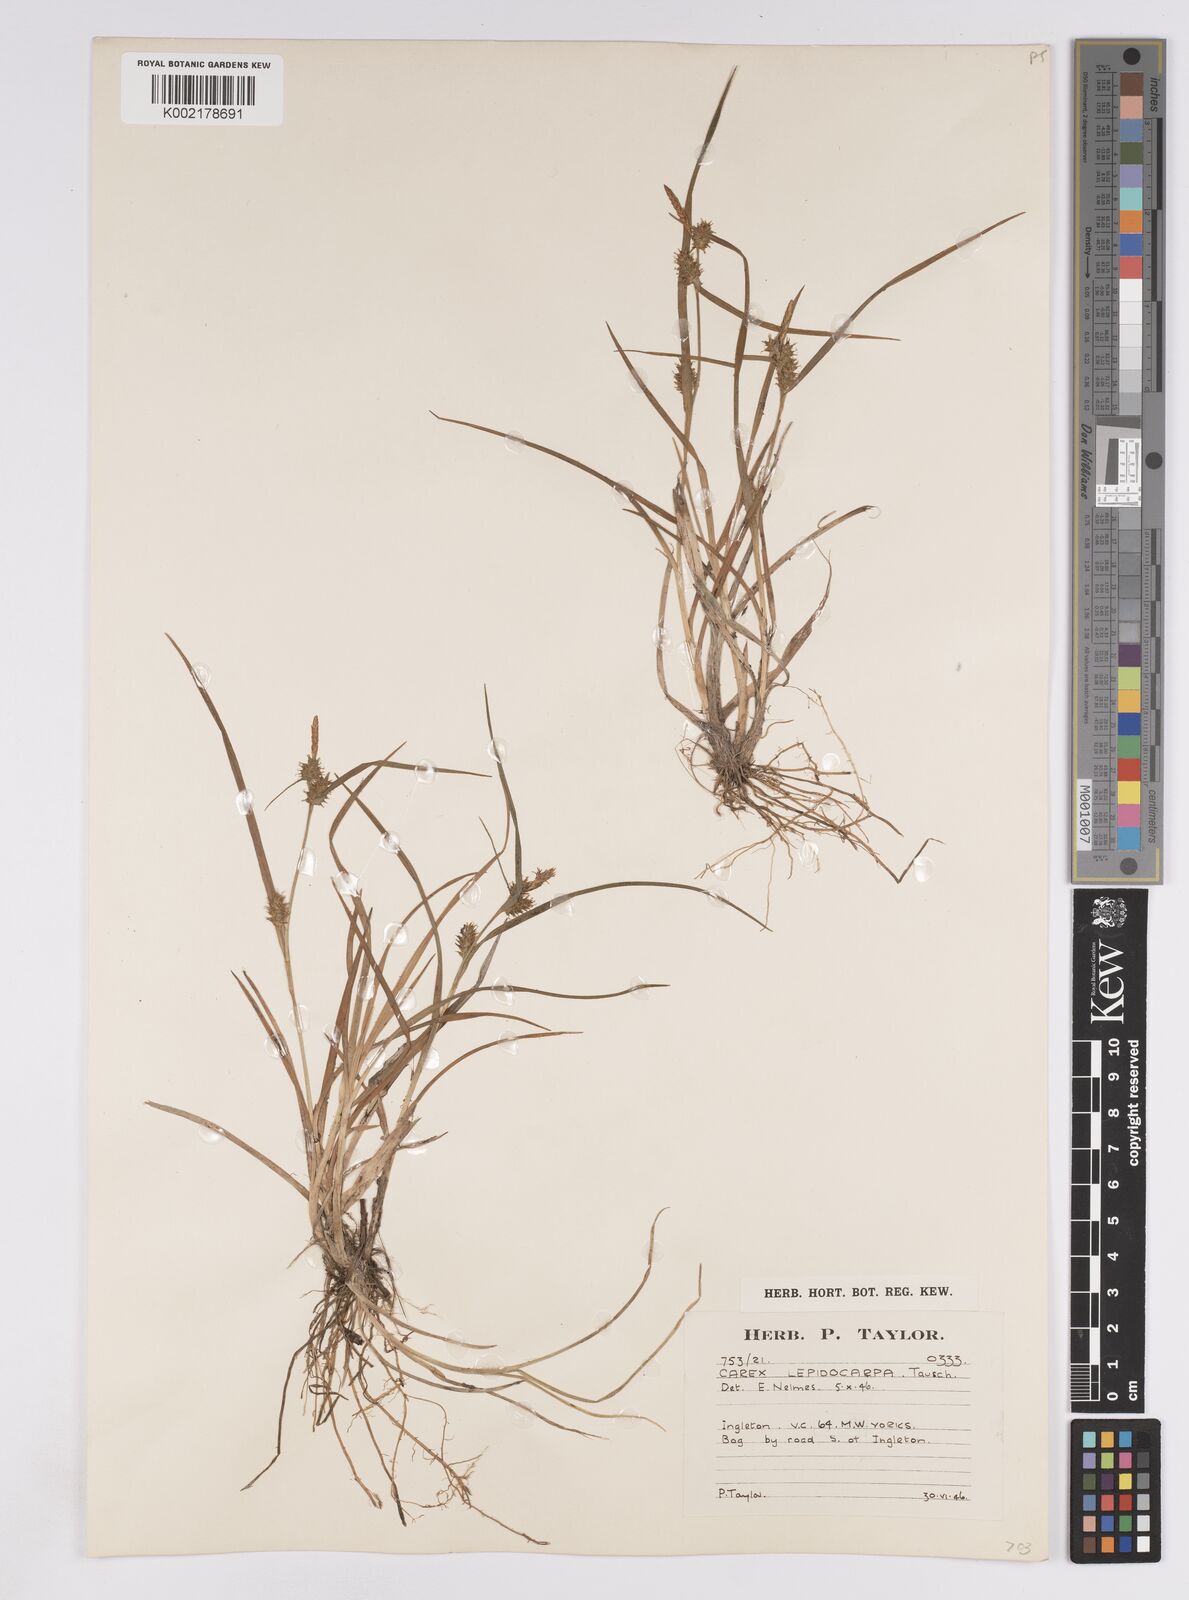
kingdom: Plantae
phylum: Tracheophyta
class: Liliopsida
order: Poales
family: Cyperaceae
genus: Carex
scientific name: Carex lepidocarpa
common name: Long-stalked yellow-sedge
